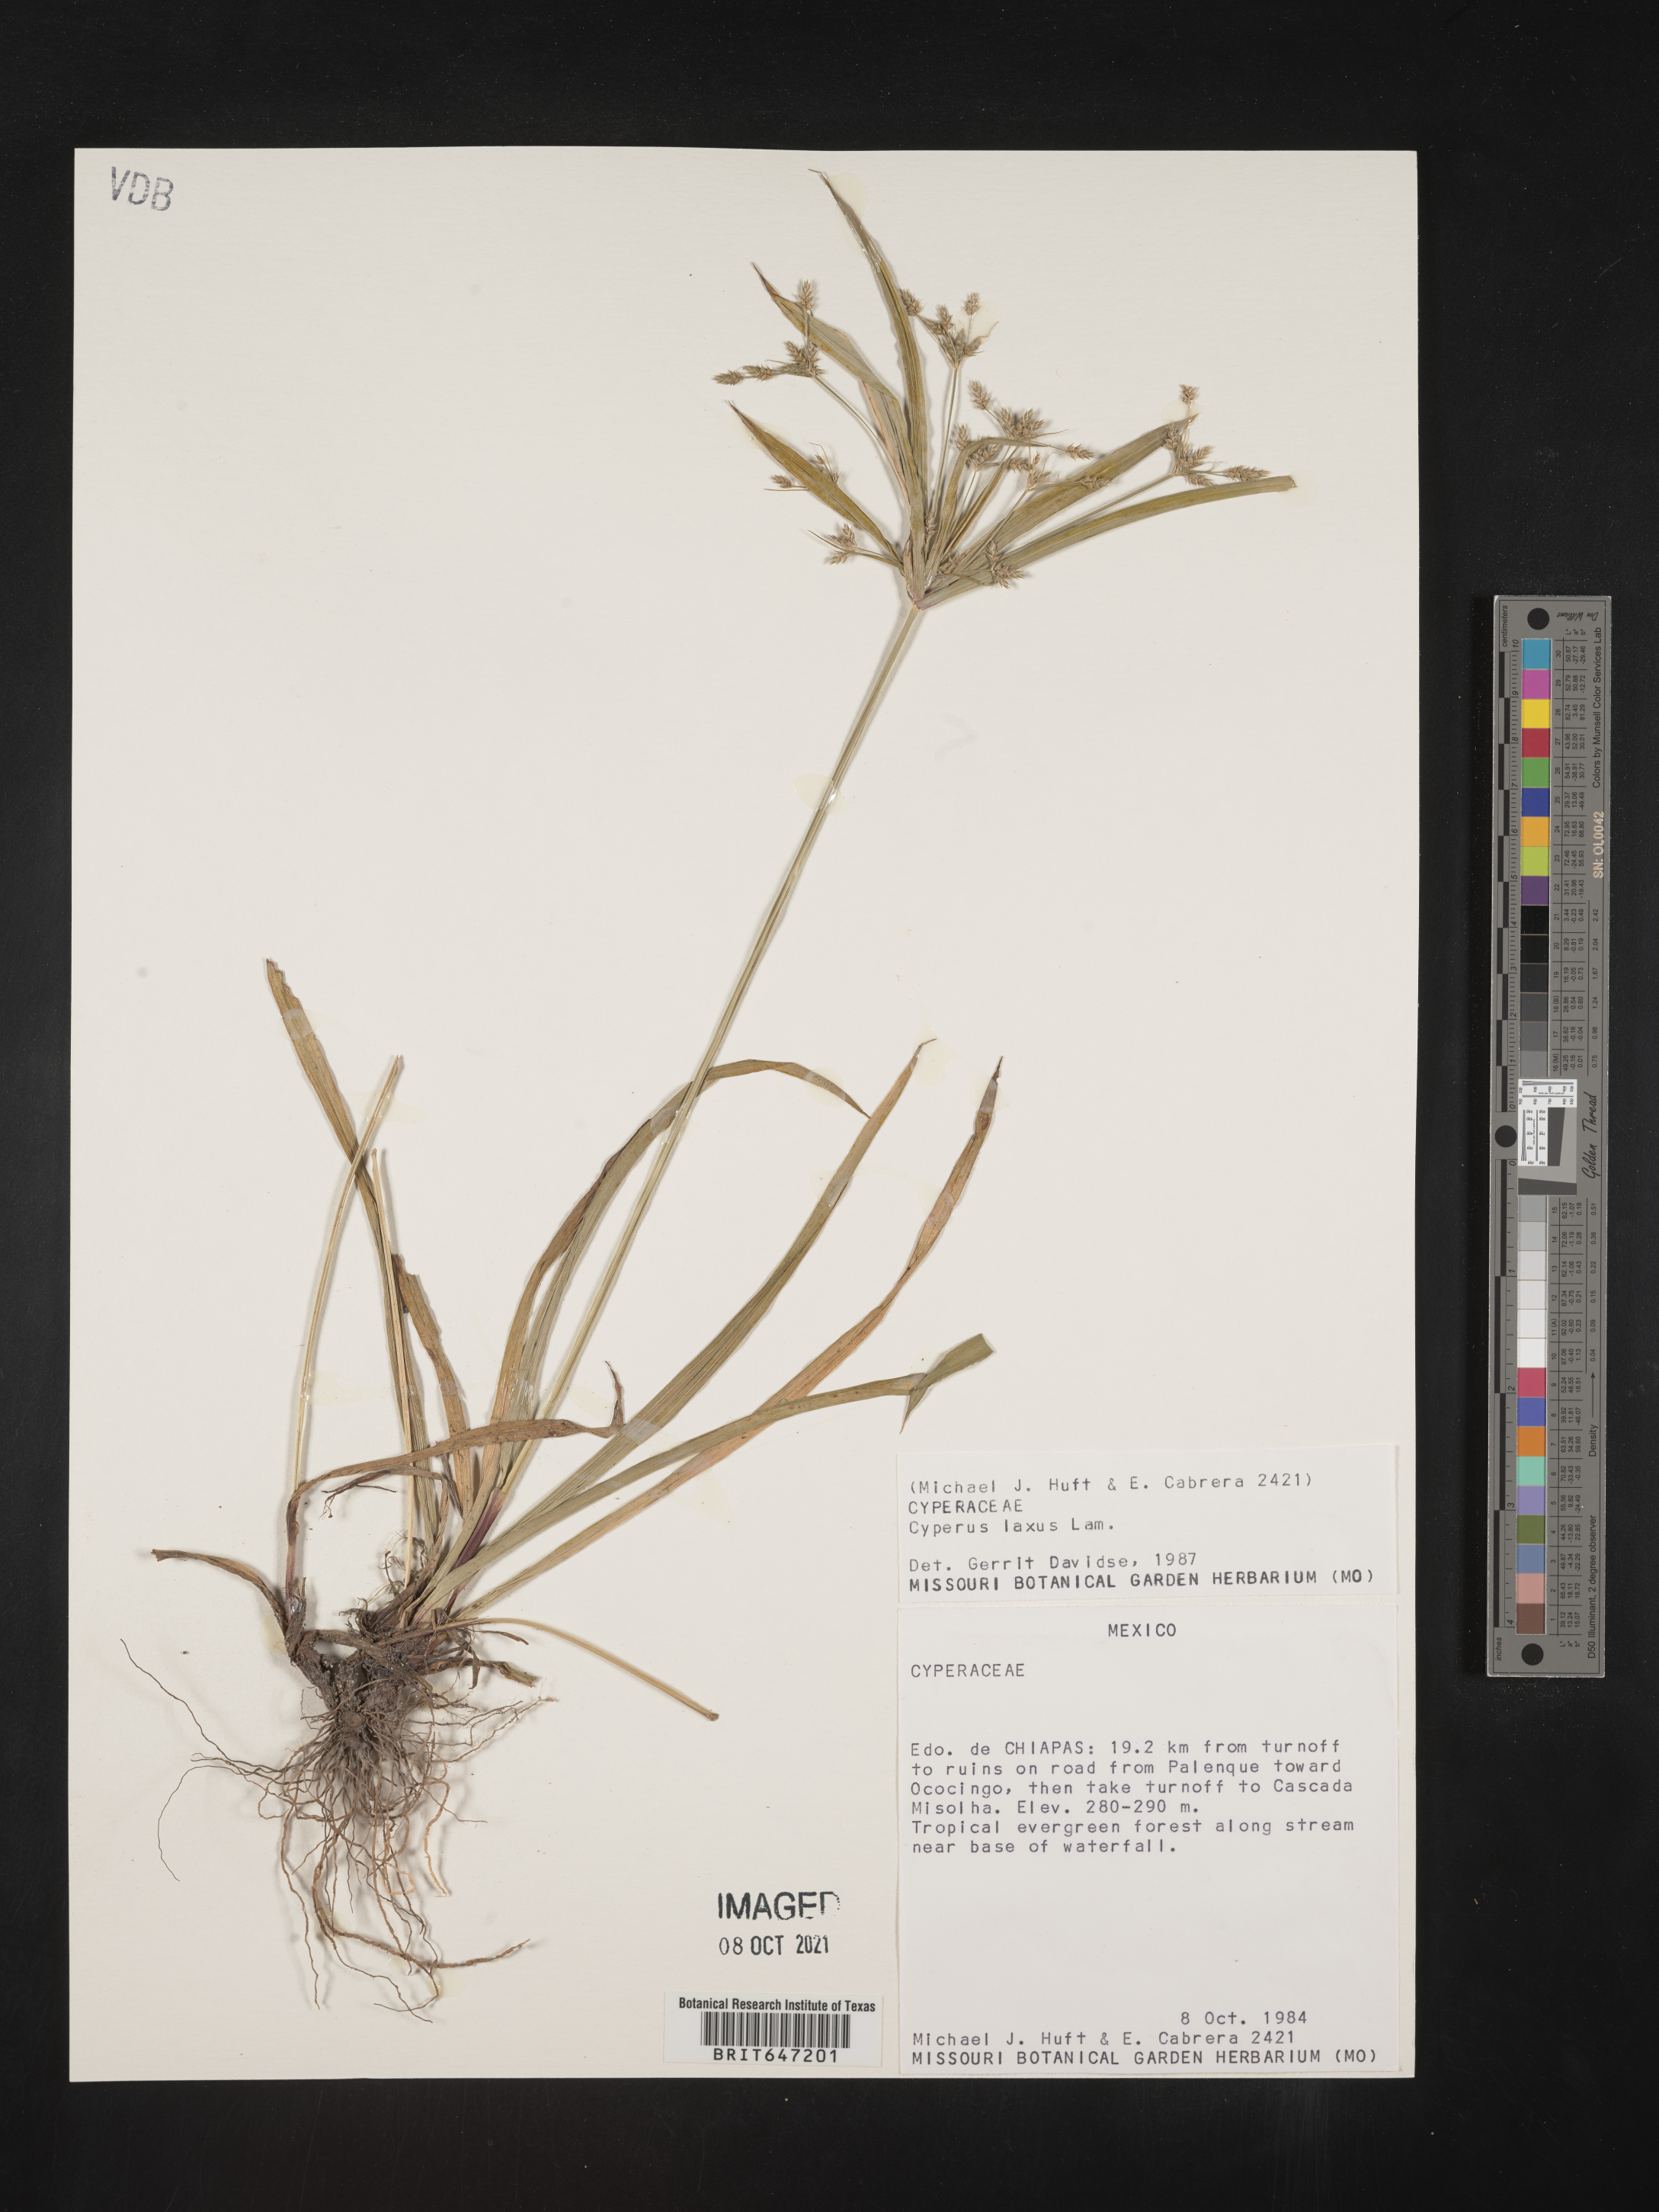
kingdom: Plantae
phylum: Tracheophyta
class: Liliopsida
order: Poales
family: Cyperaceae
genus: Cyperus
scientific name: Cyperus laxus
